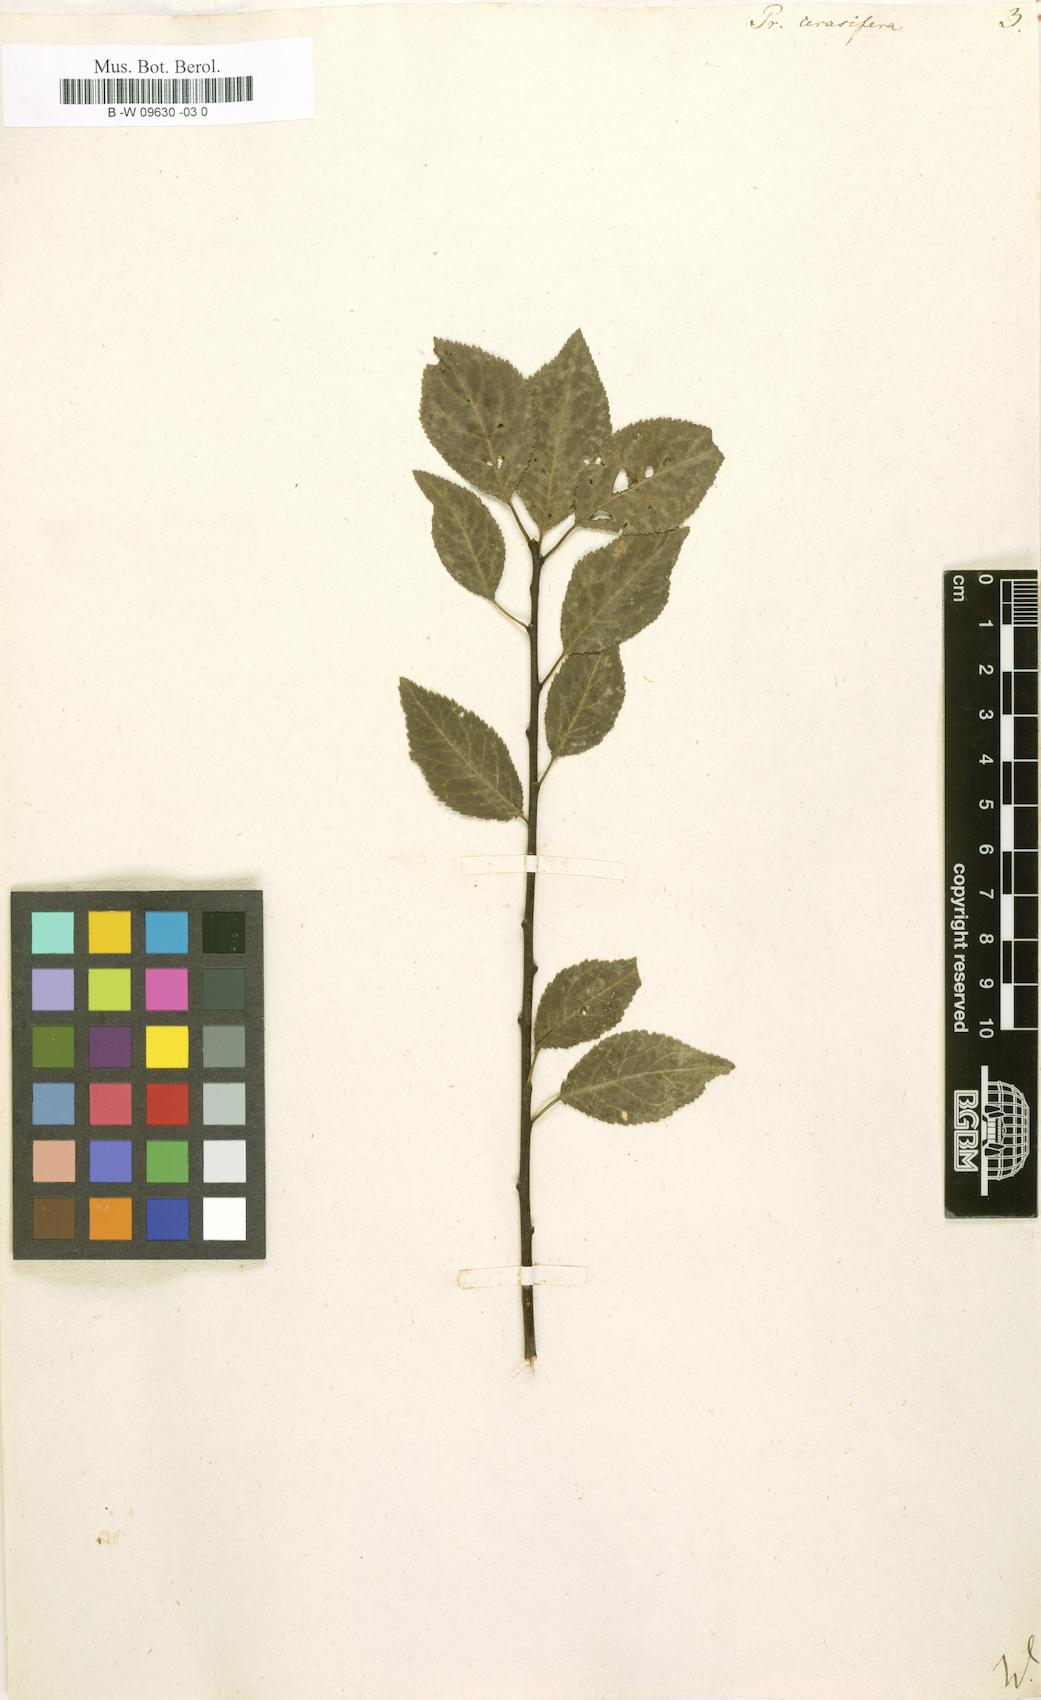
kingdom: Plantae
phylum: Tracheophyta
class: Magnoliopsida
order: Rosales
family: Rosaceae
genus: Prunus
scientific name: Prunus cerasifera
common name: Cherry plum
